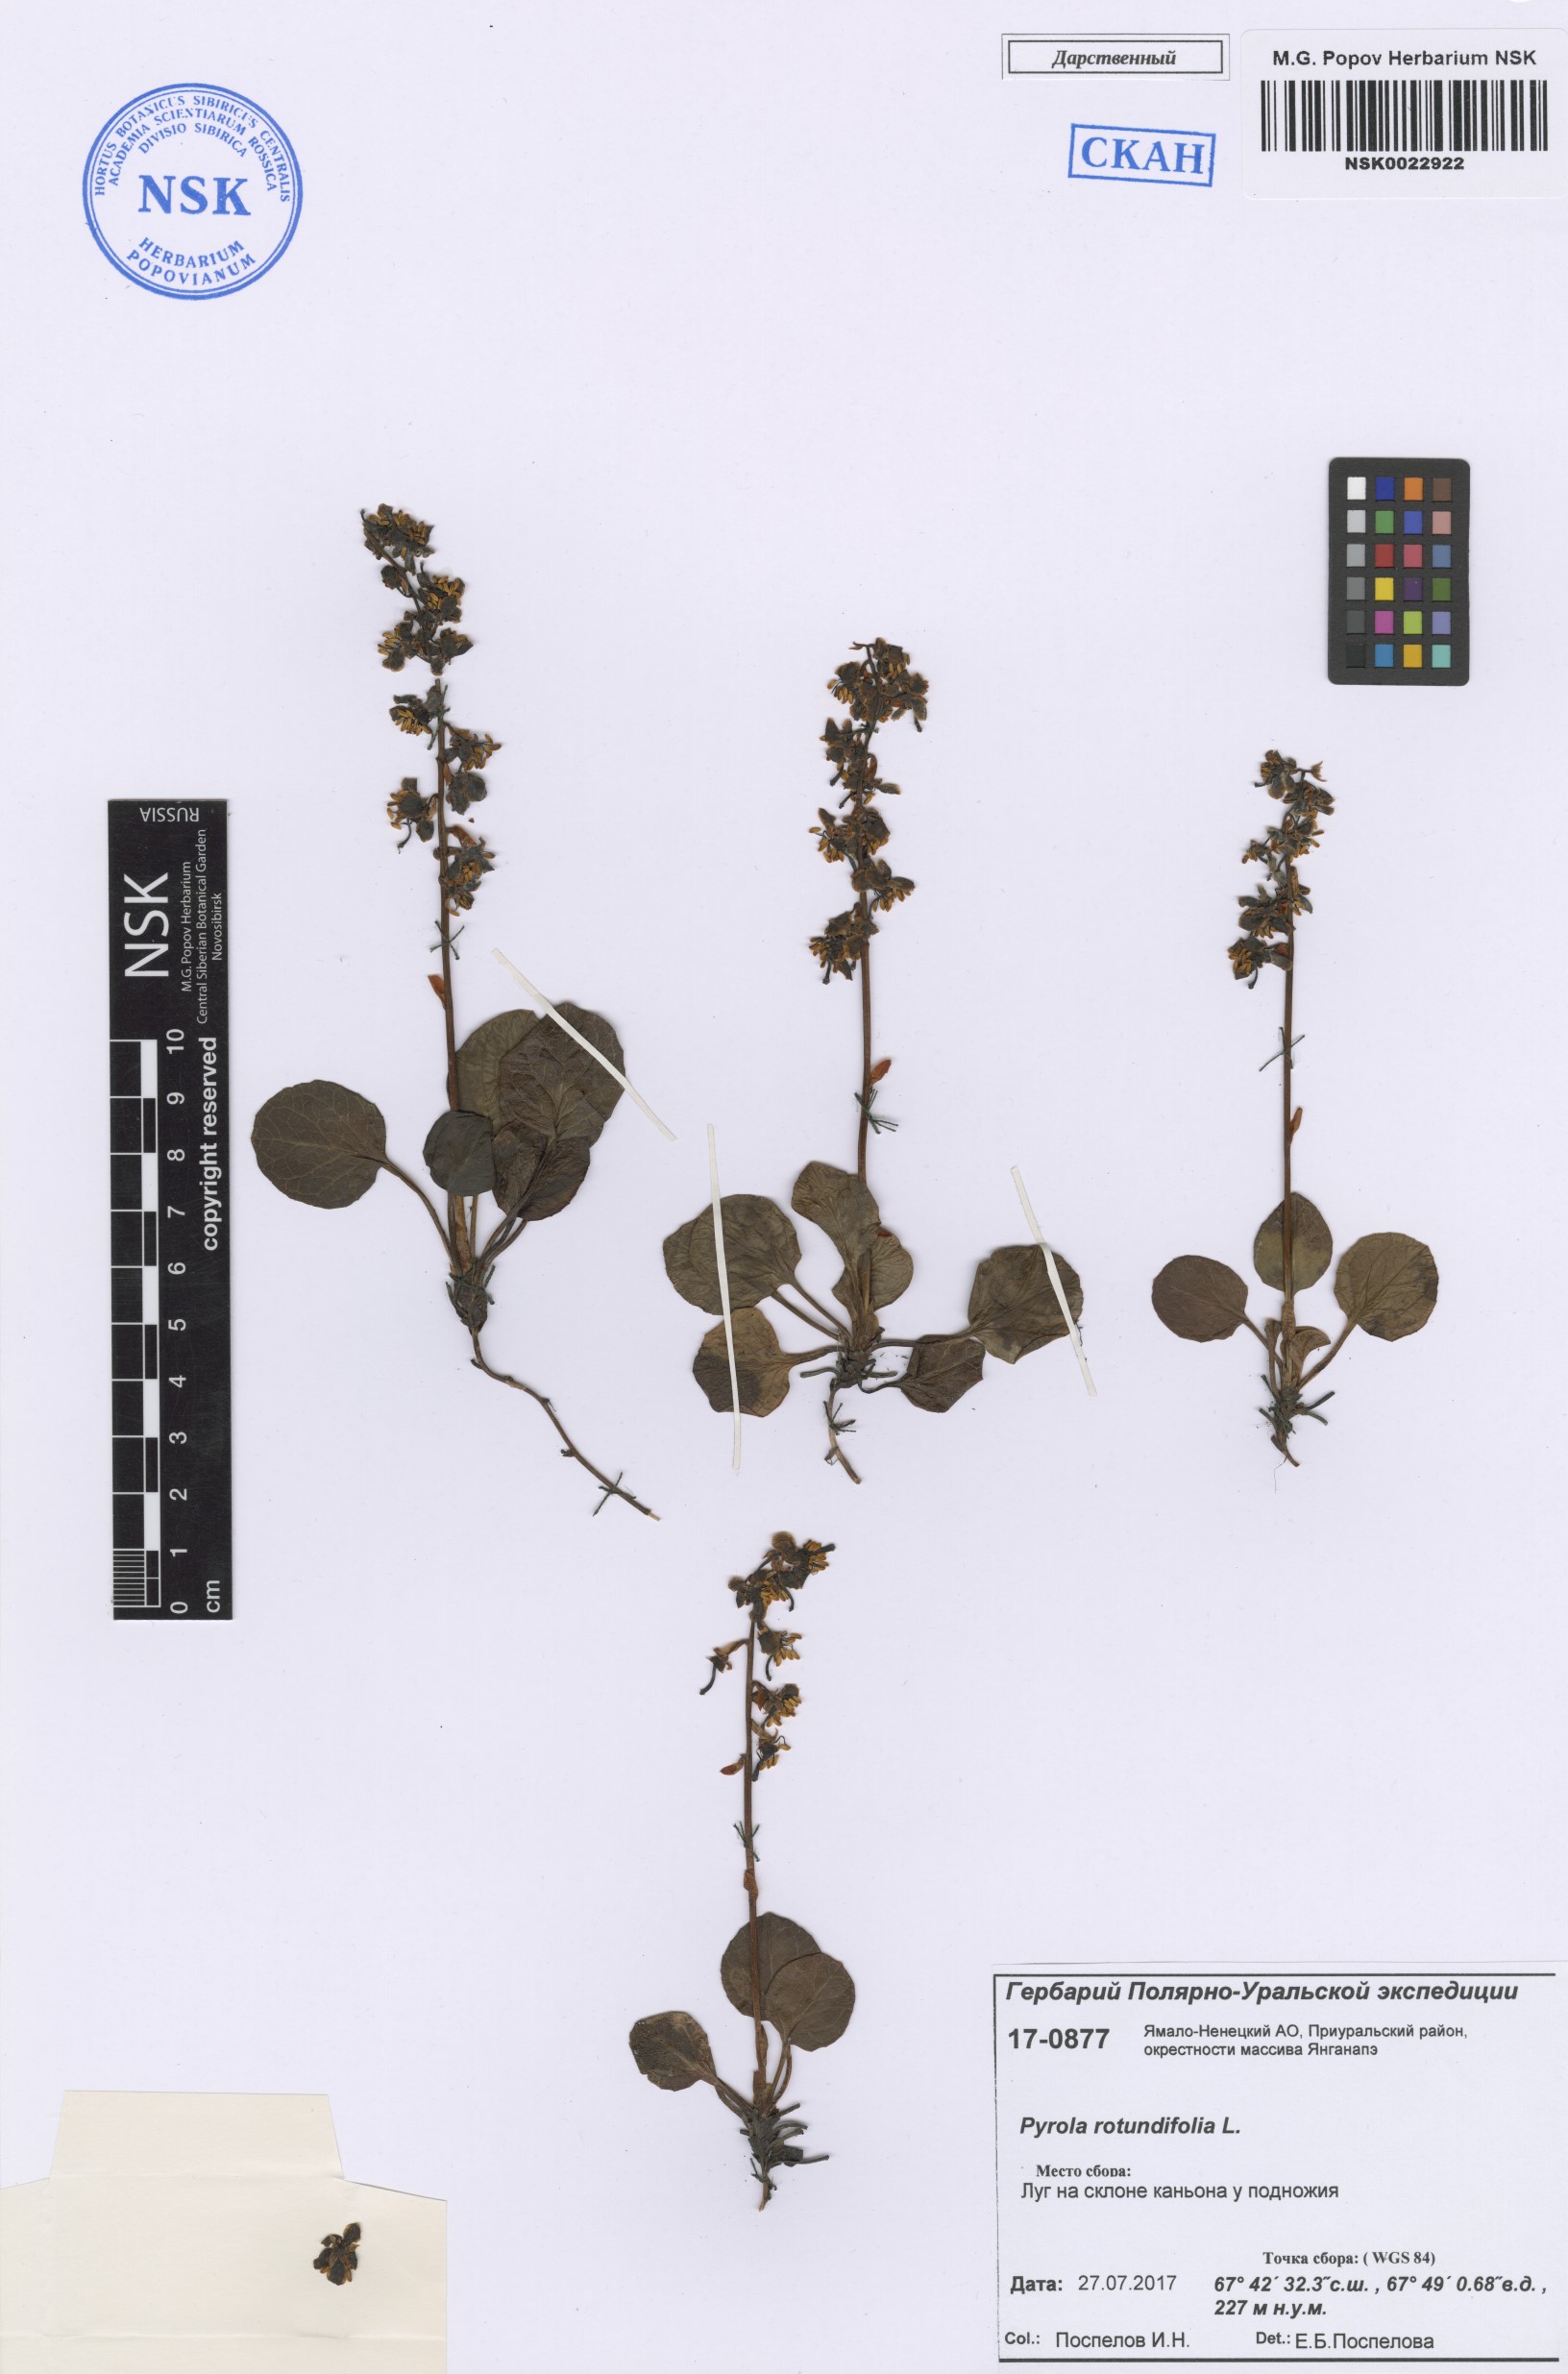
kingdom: Plantae
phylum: Tracheophyta
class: Magnoliopsida
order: Ericales
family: Ericaceae
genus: Pyrola
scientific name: Pyrola rotundifolia
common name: Round-leaved wintergreen
